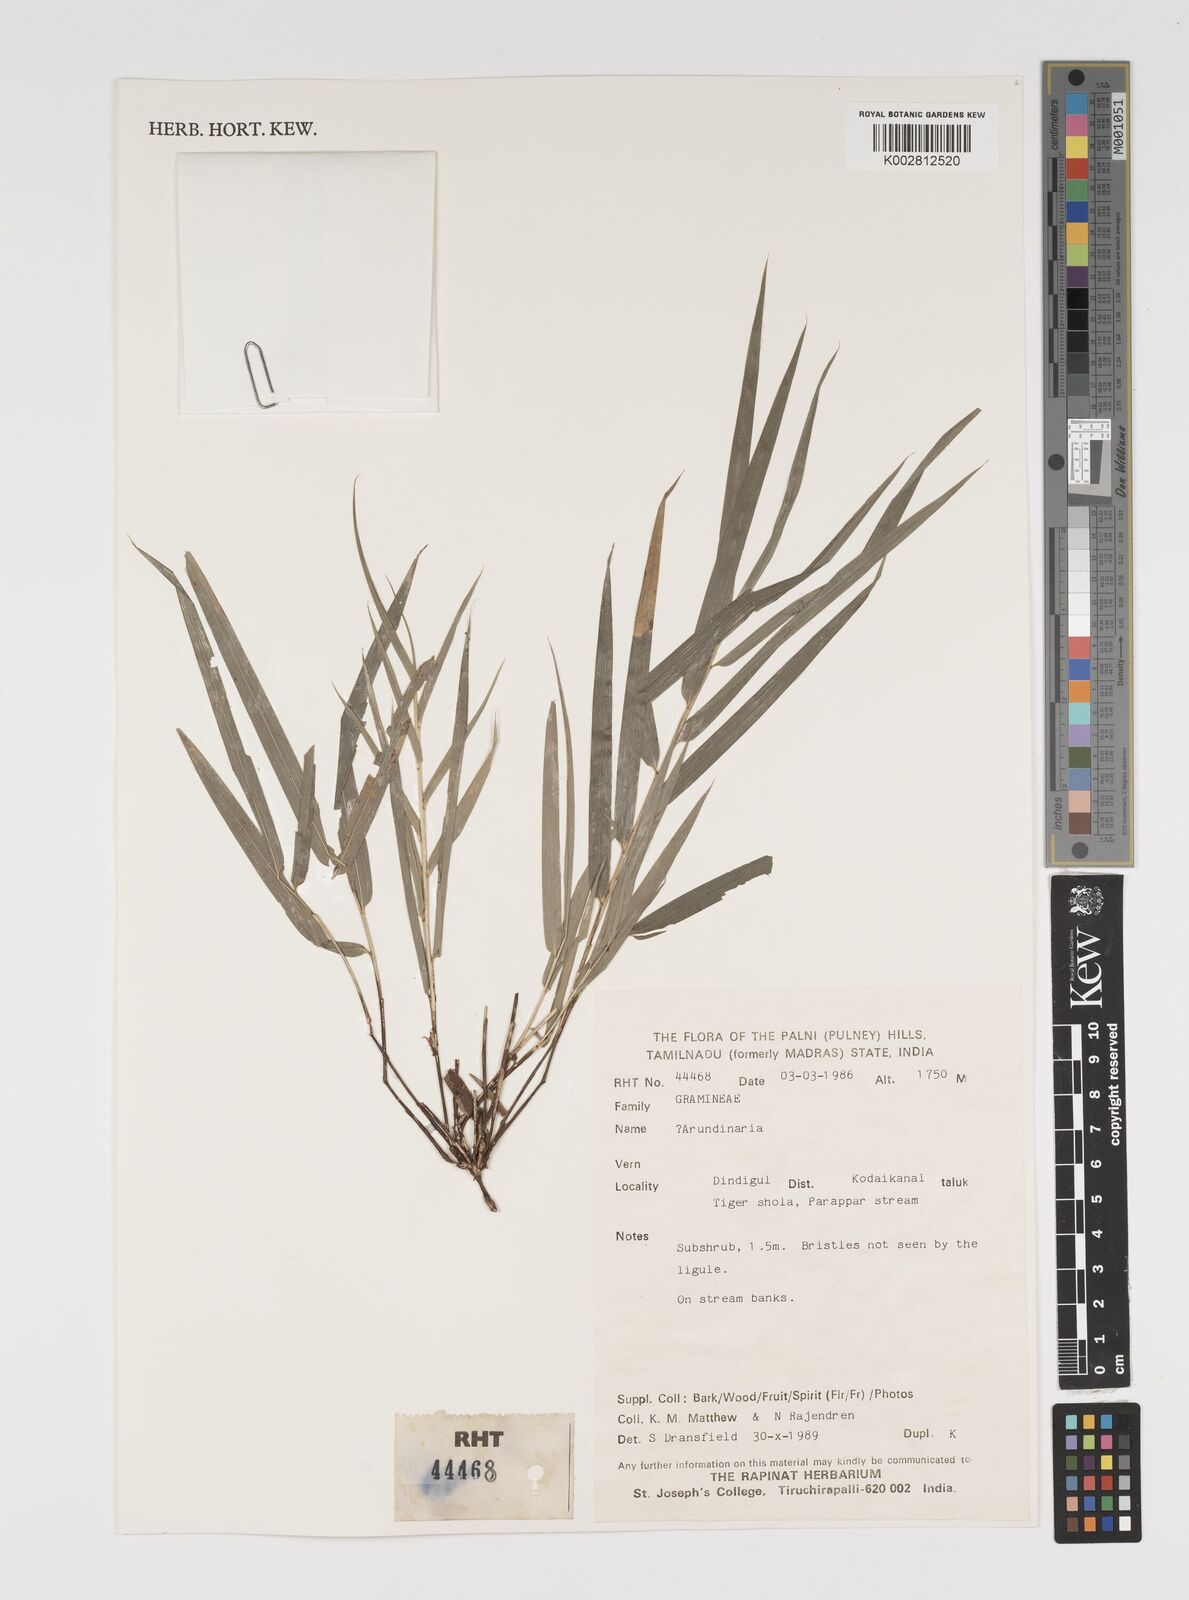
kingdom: Plantae
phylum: Tracheophyta
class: Liliopsida
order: Poales
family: Poaceae
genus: Arundinaria
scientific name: Arundinaria
